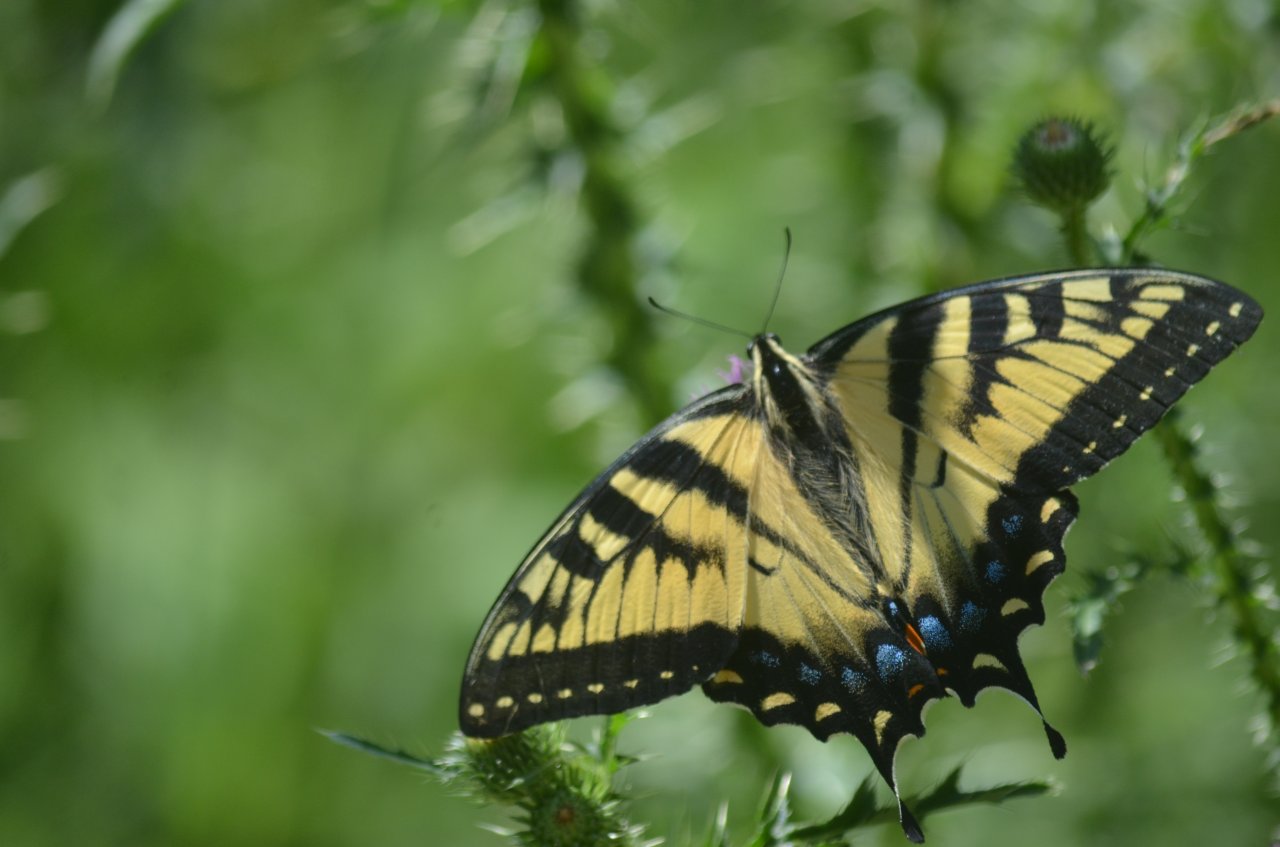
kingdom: Animalia
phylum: Arthropoda
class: Insecta
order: Lepidoptera
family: Papilionidae
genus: Pterourus
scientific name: Pterourus glaucus
